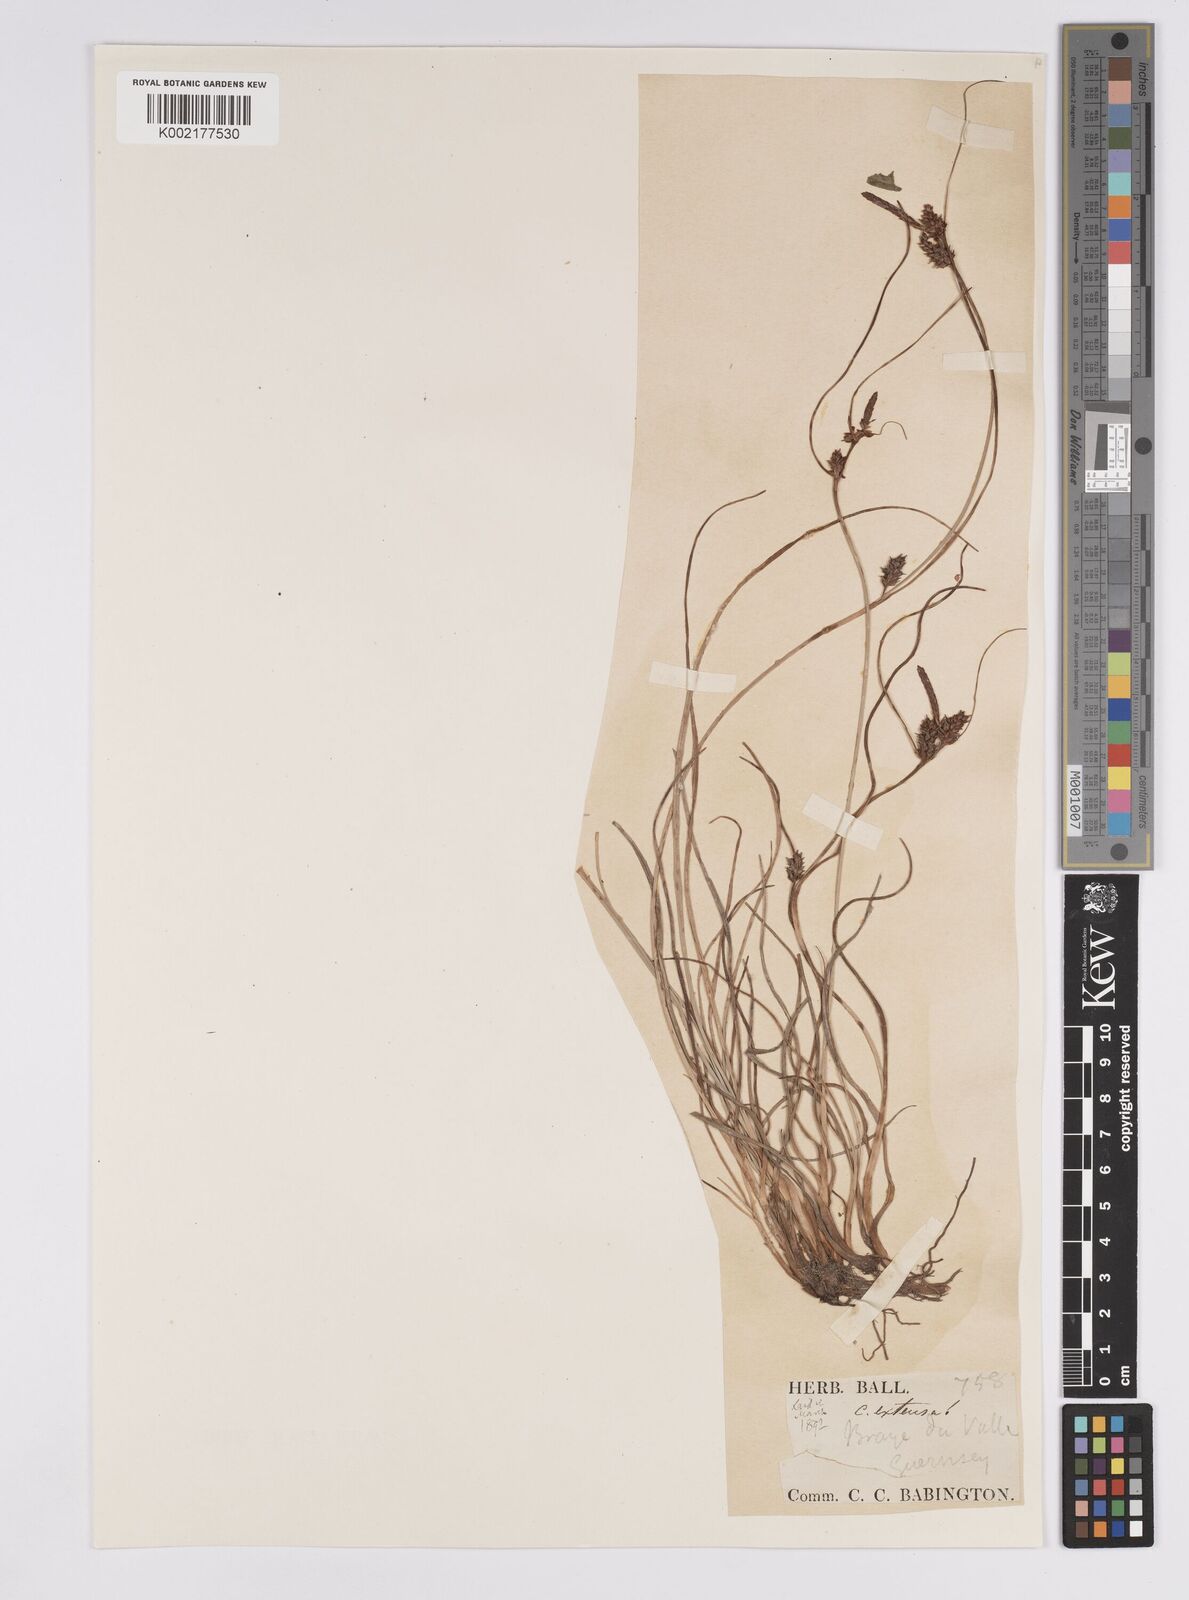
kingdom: Plantae
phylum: Tracheophyta
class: Liliopsida
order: Poales
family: Cyperaceae
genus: Carex
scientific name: Carex extensa
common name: Long-bracted sedge
